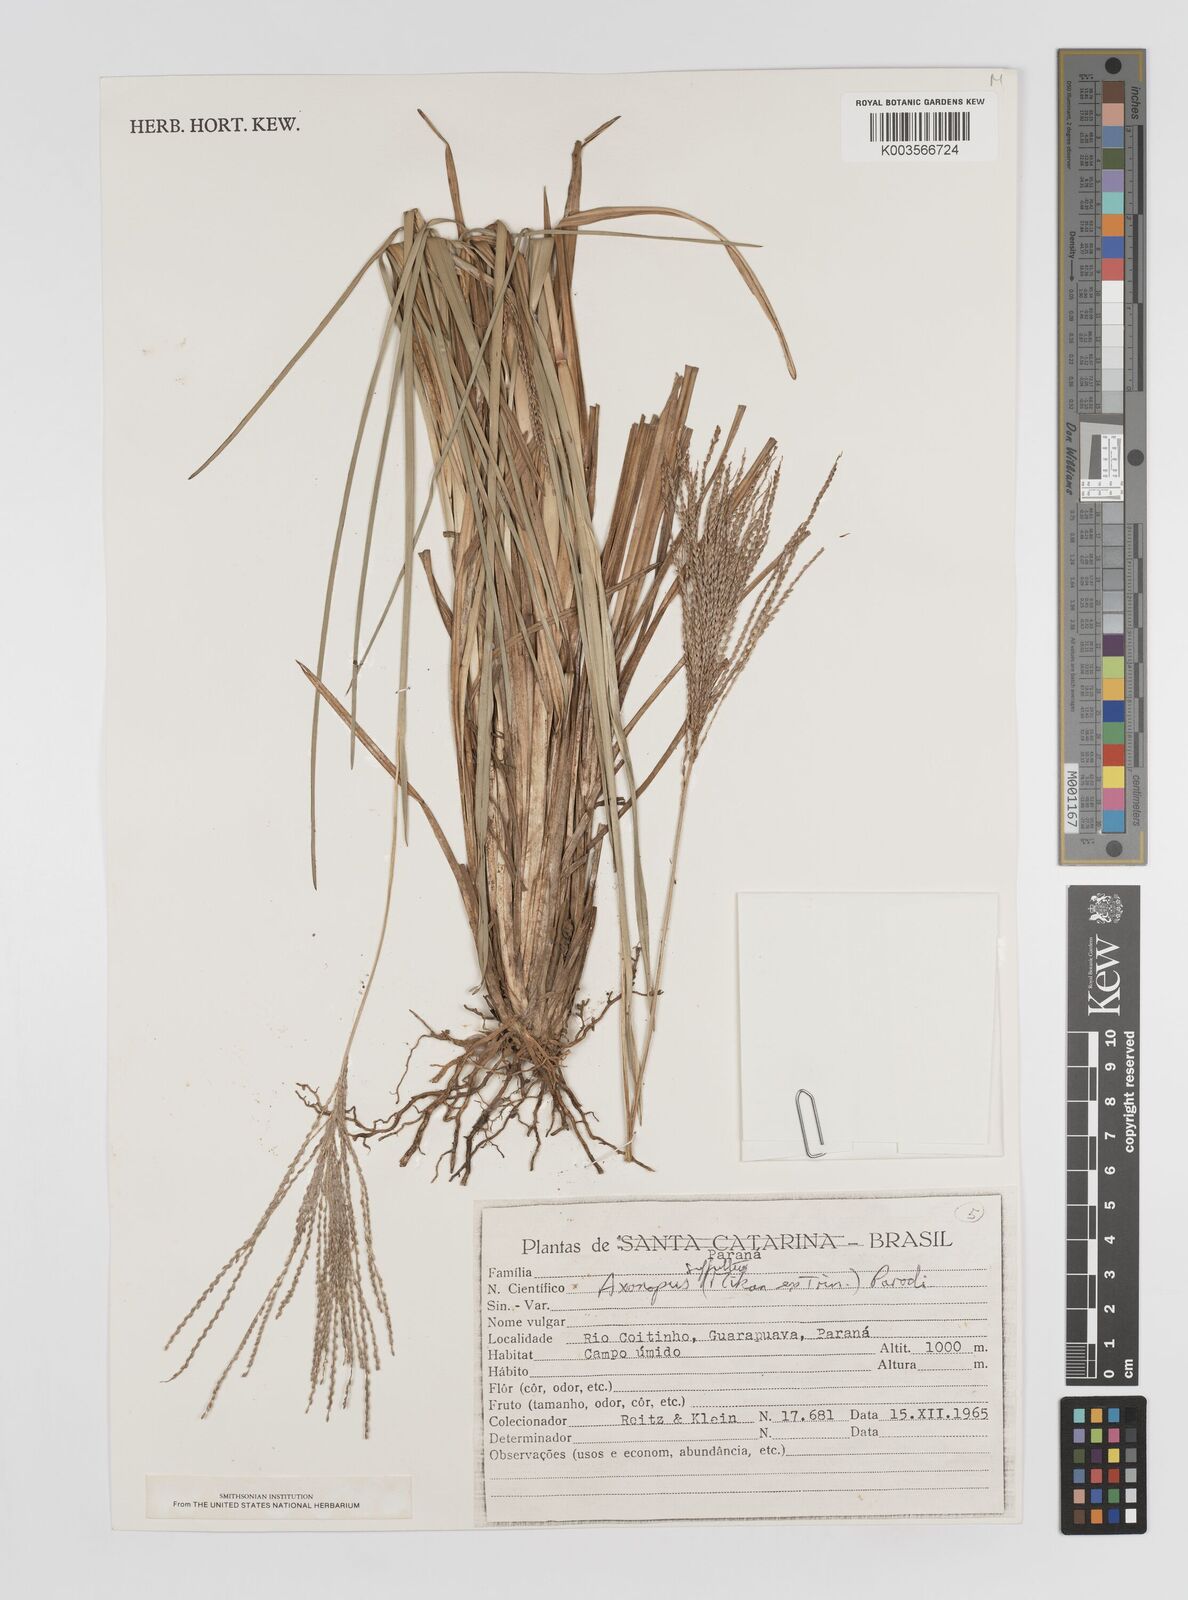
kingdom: Plantae
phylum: Tracheophyta
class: Liliopsida
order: Poales
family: Poaceae
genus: Axonopus
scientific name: Axonopus suffultus
